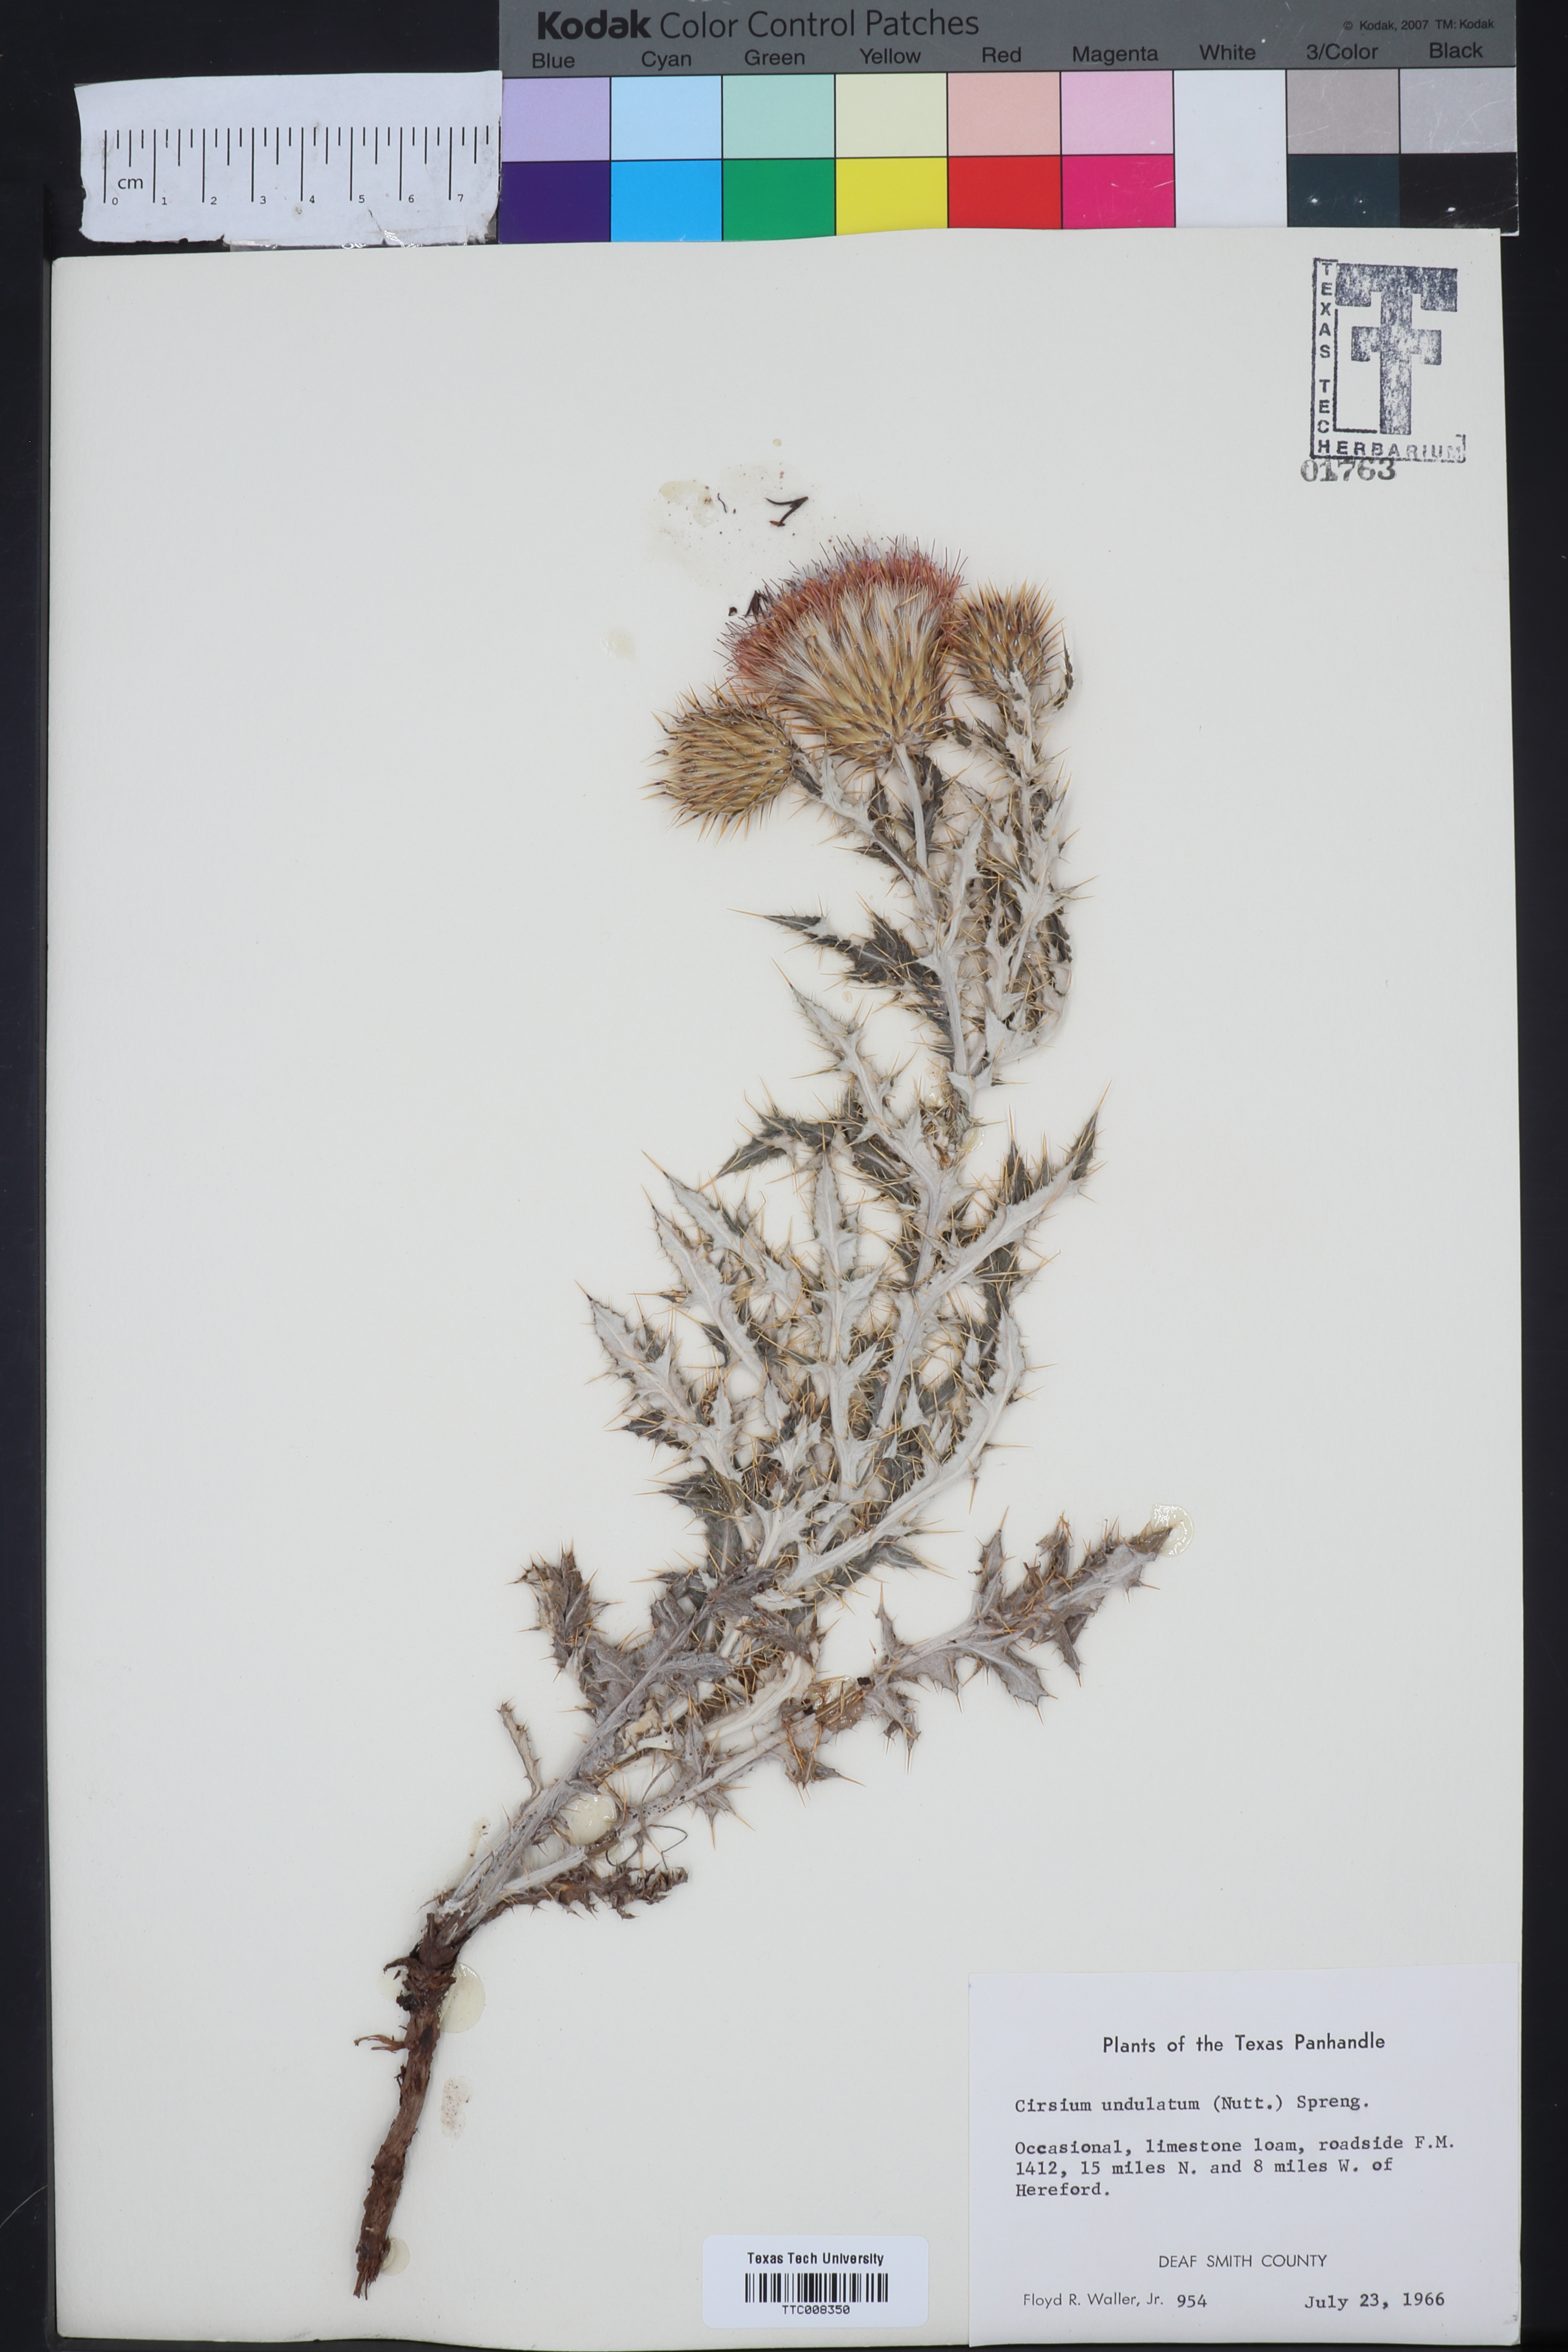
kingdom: Plantae
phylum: Tracheophyta
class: Magnoliopsida
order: Asterales
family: Asteraceae
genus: Cirsium
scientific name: Cirsium undulatum
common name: Pasture thistle
